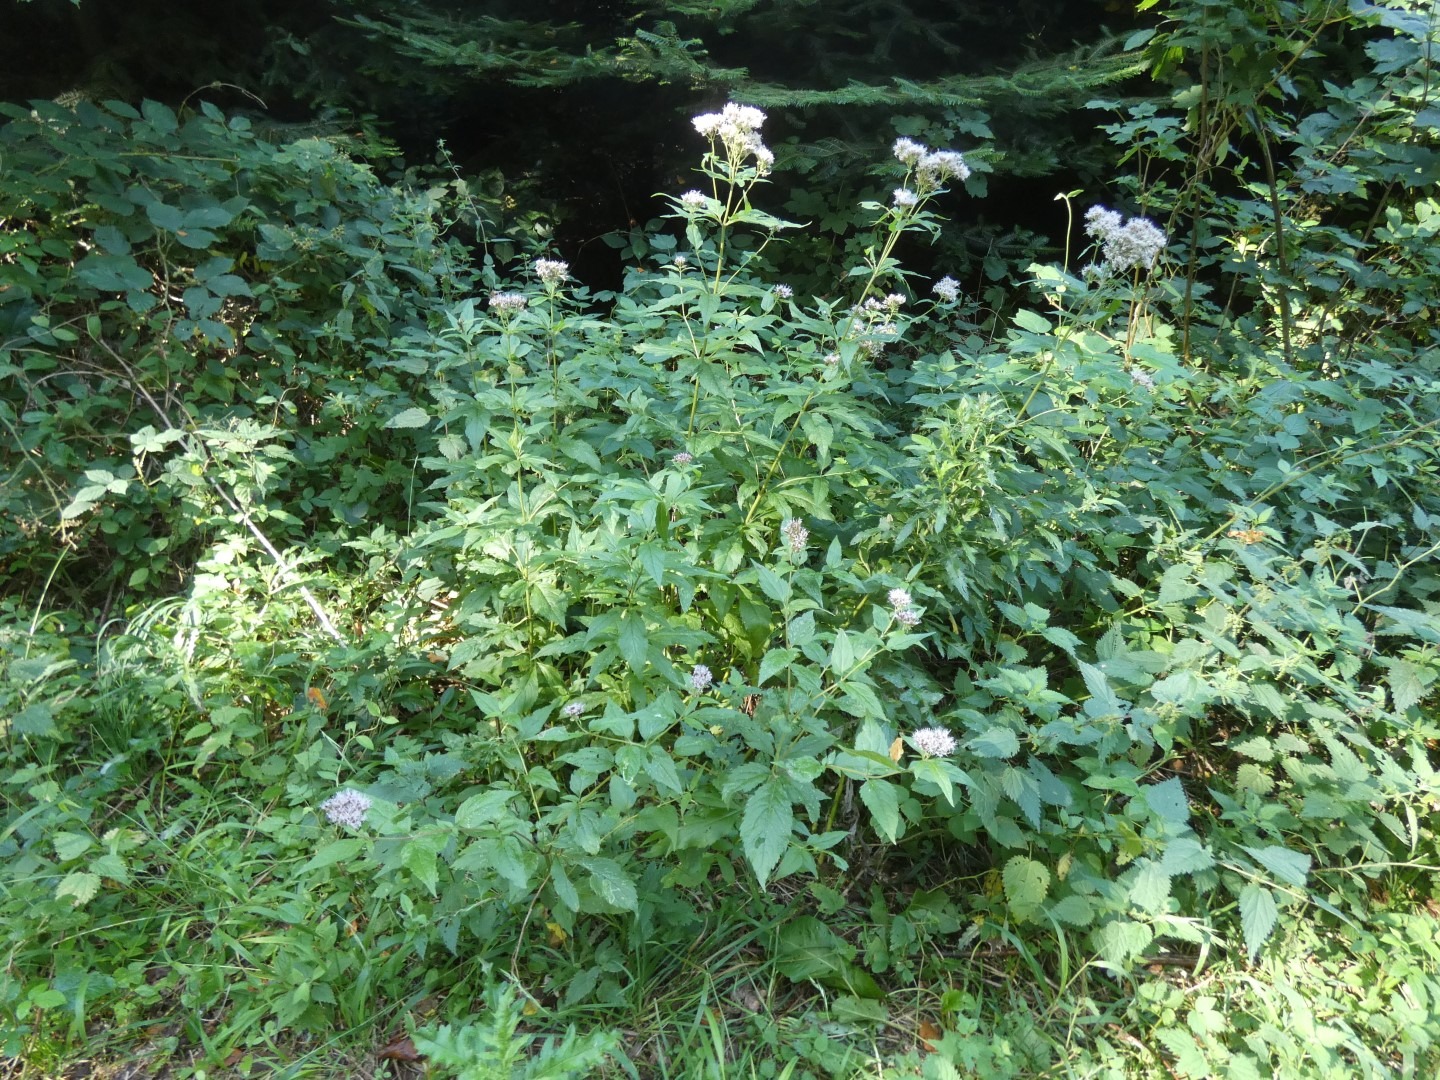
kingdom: Plantae
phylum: Tracheophyta
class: Magnoliopsida
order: Asterales
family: Asteraceae
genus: Eupatorium
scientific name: Eupatorium cannabinum
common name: Hjortetrøst
